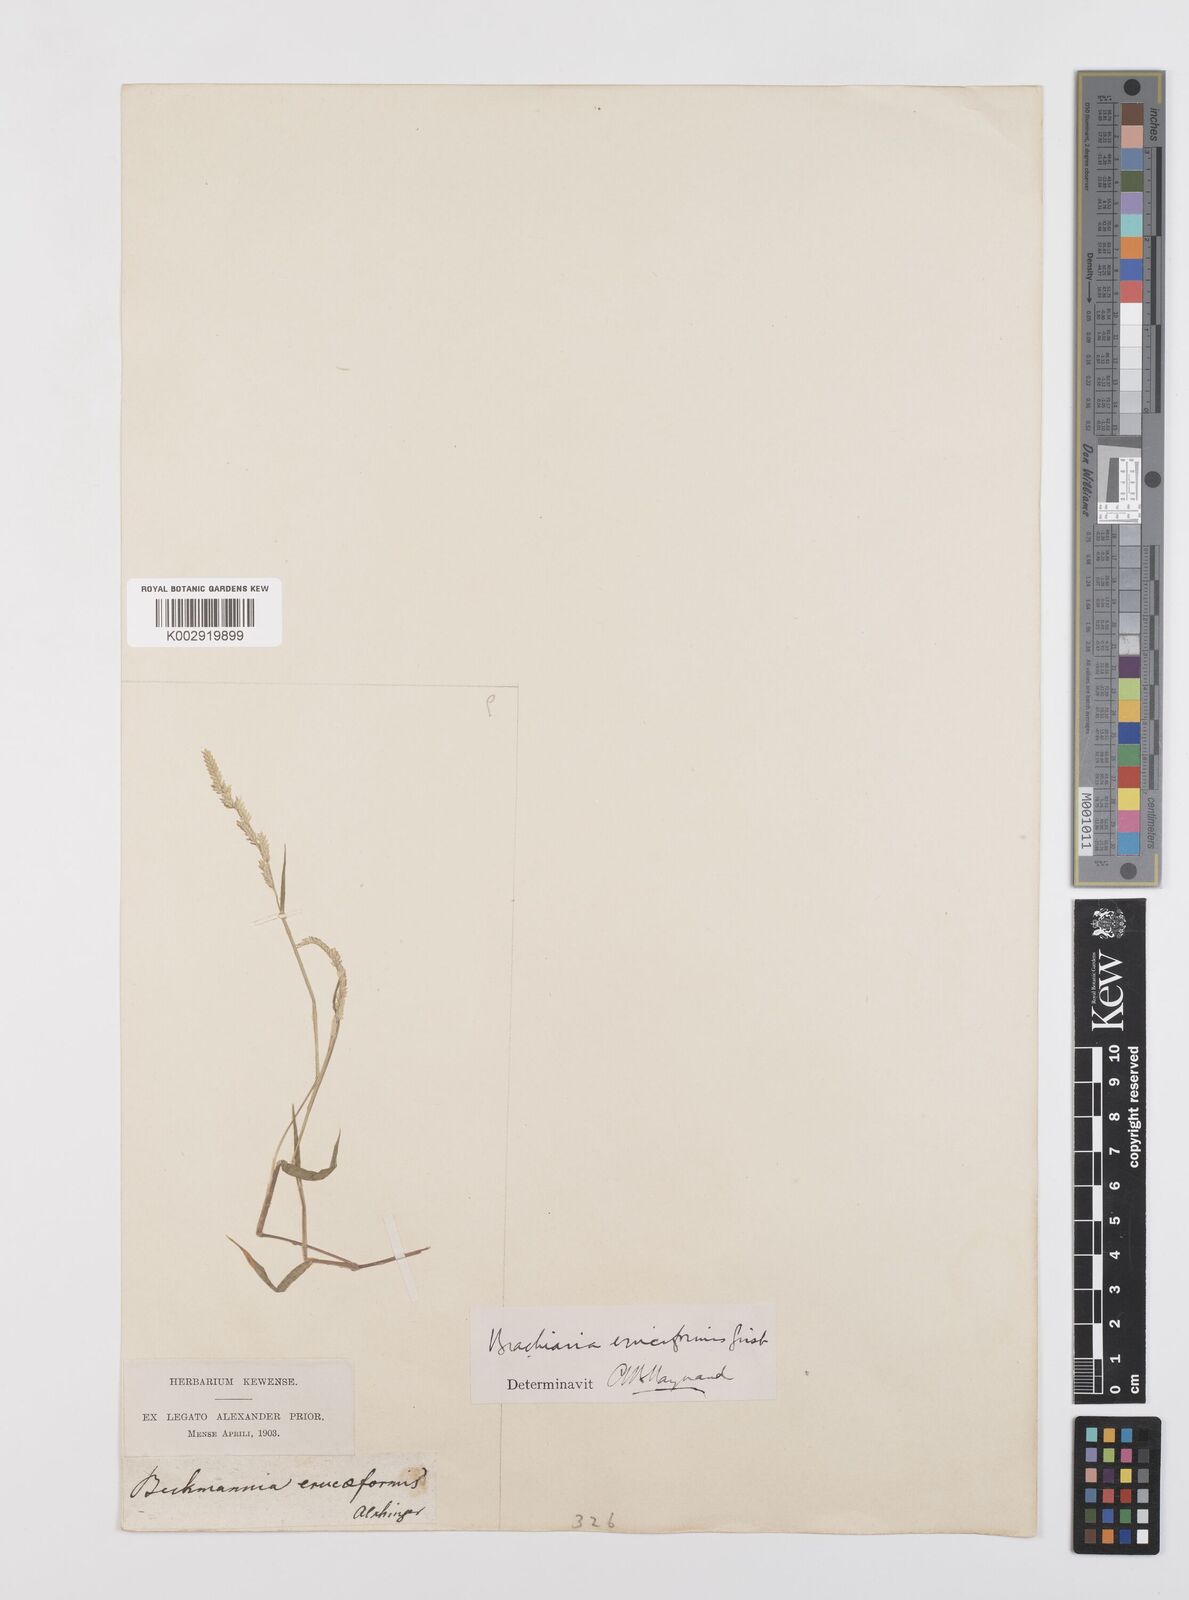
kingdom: Plantae
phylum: Tracheophyta
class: Liliopsida
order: Poales
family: Poaceae
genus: Moorochloa
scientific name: Moorochloa eruciformis
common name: Sweet signalgrass
